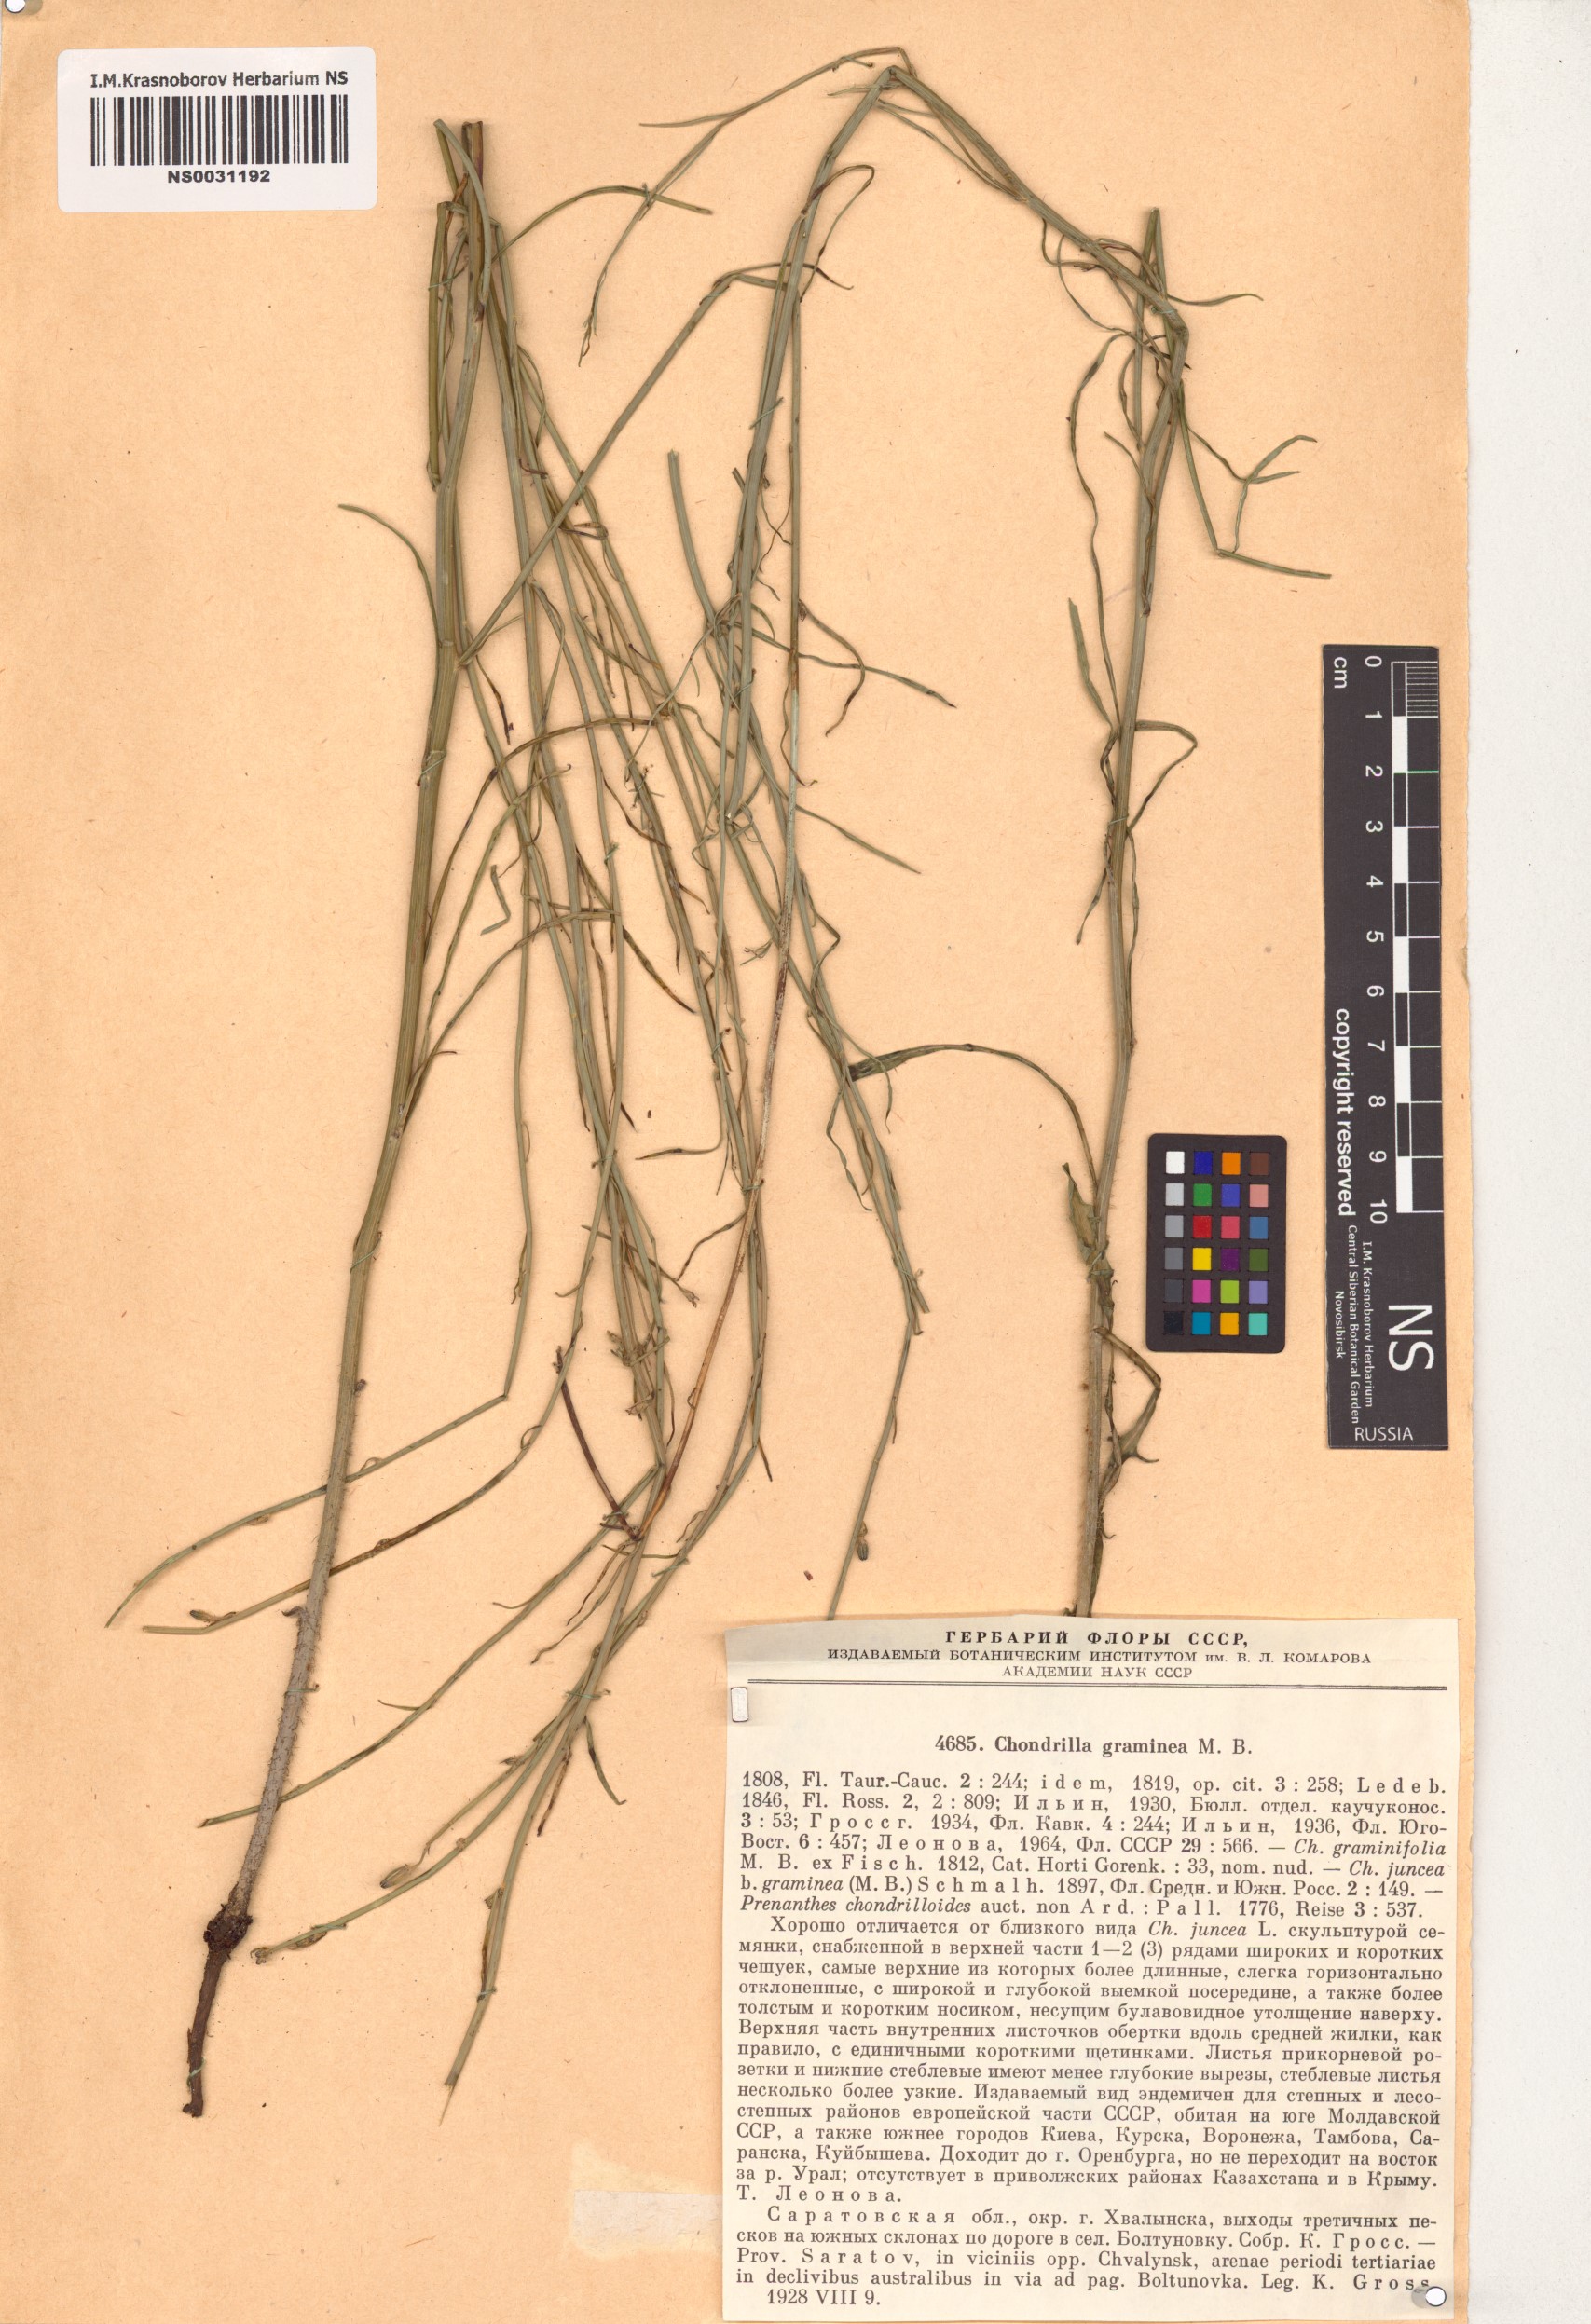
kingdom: Plantae
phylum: Tracheophyta
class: Magnoliopsida
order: Asterales
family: Asteraceae
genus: Chondrilla
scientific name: Chondrilla graminea
